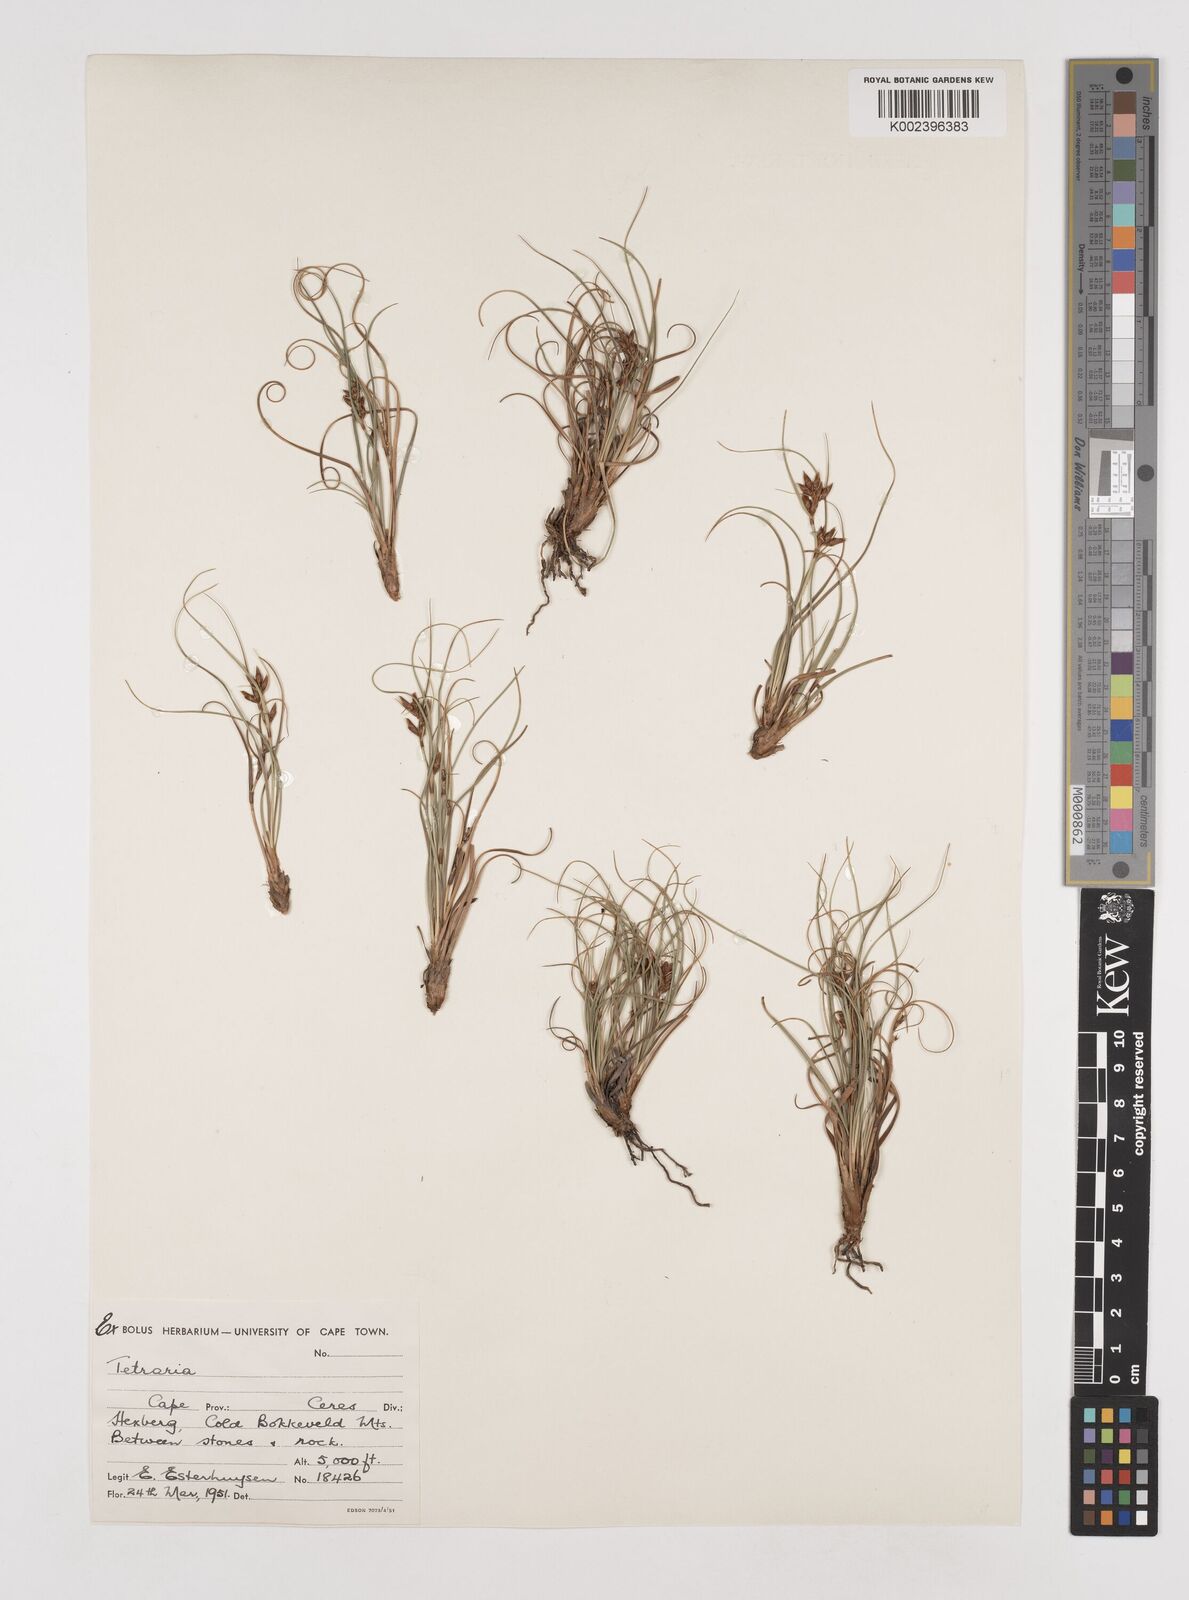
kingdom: Plantae
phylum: Tracheophyta
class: Liliopsida
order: Poales
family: Cyperaceae
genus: Tetraria
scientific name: Tetraria
